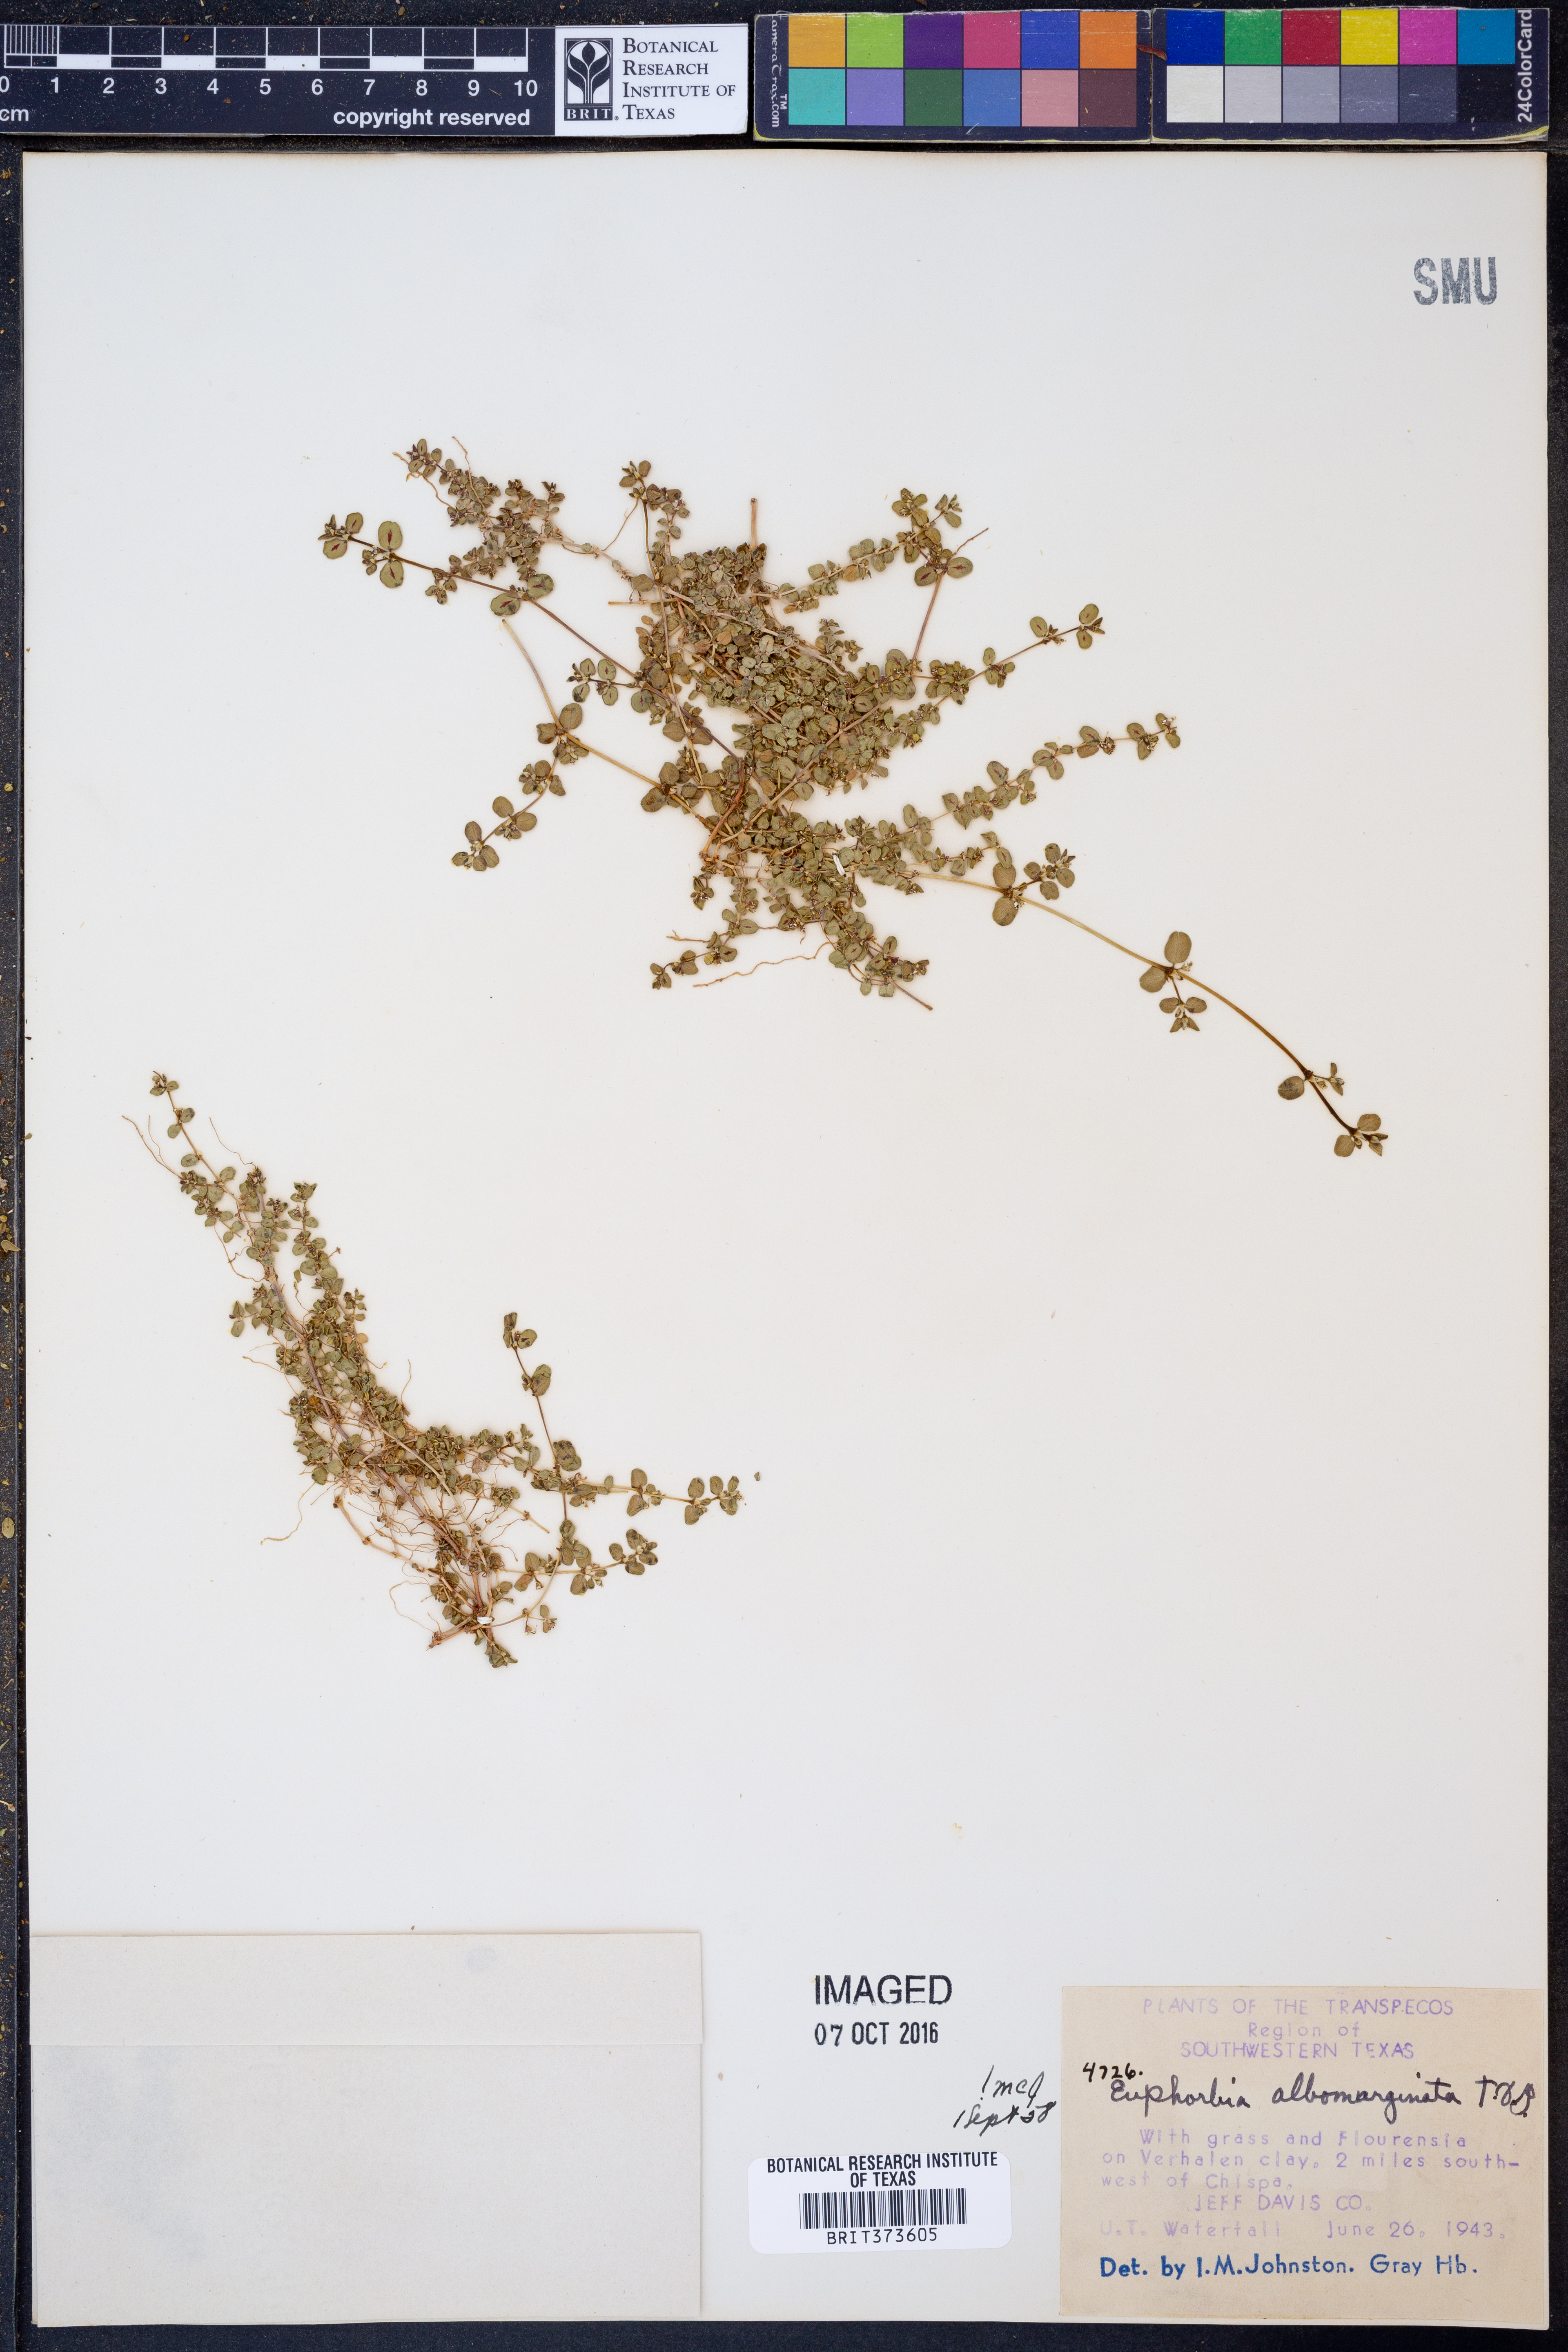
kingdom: Plantae
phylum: Tracheophyta
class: Magnoliopsida
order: Malpighiales
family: Euphorbiaceae
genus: Euphorbia
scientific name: Euphorbia albomarginata
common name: Whitemargin sandmat
